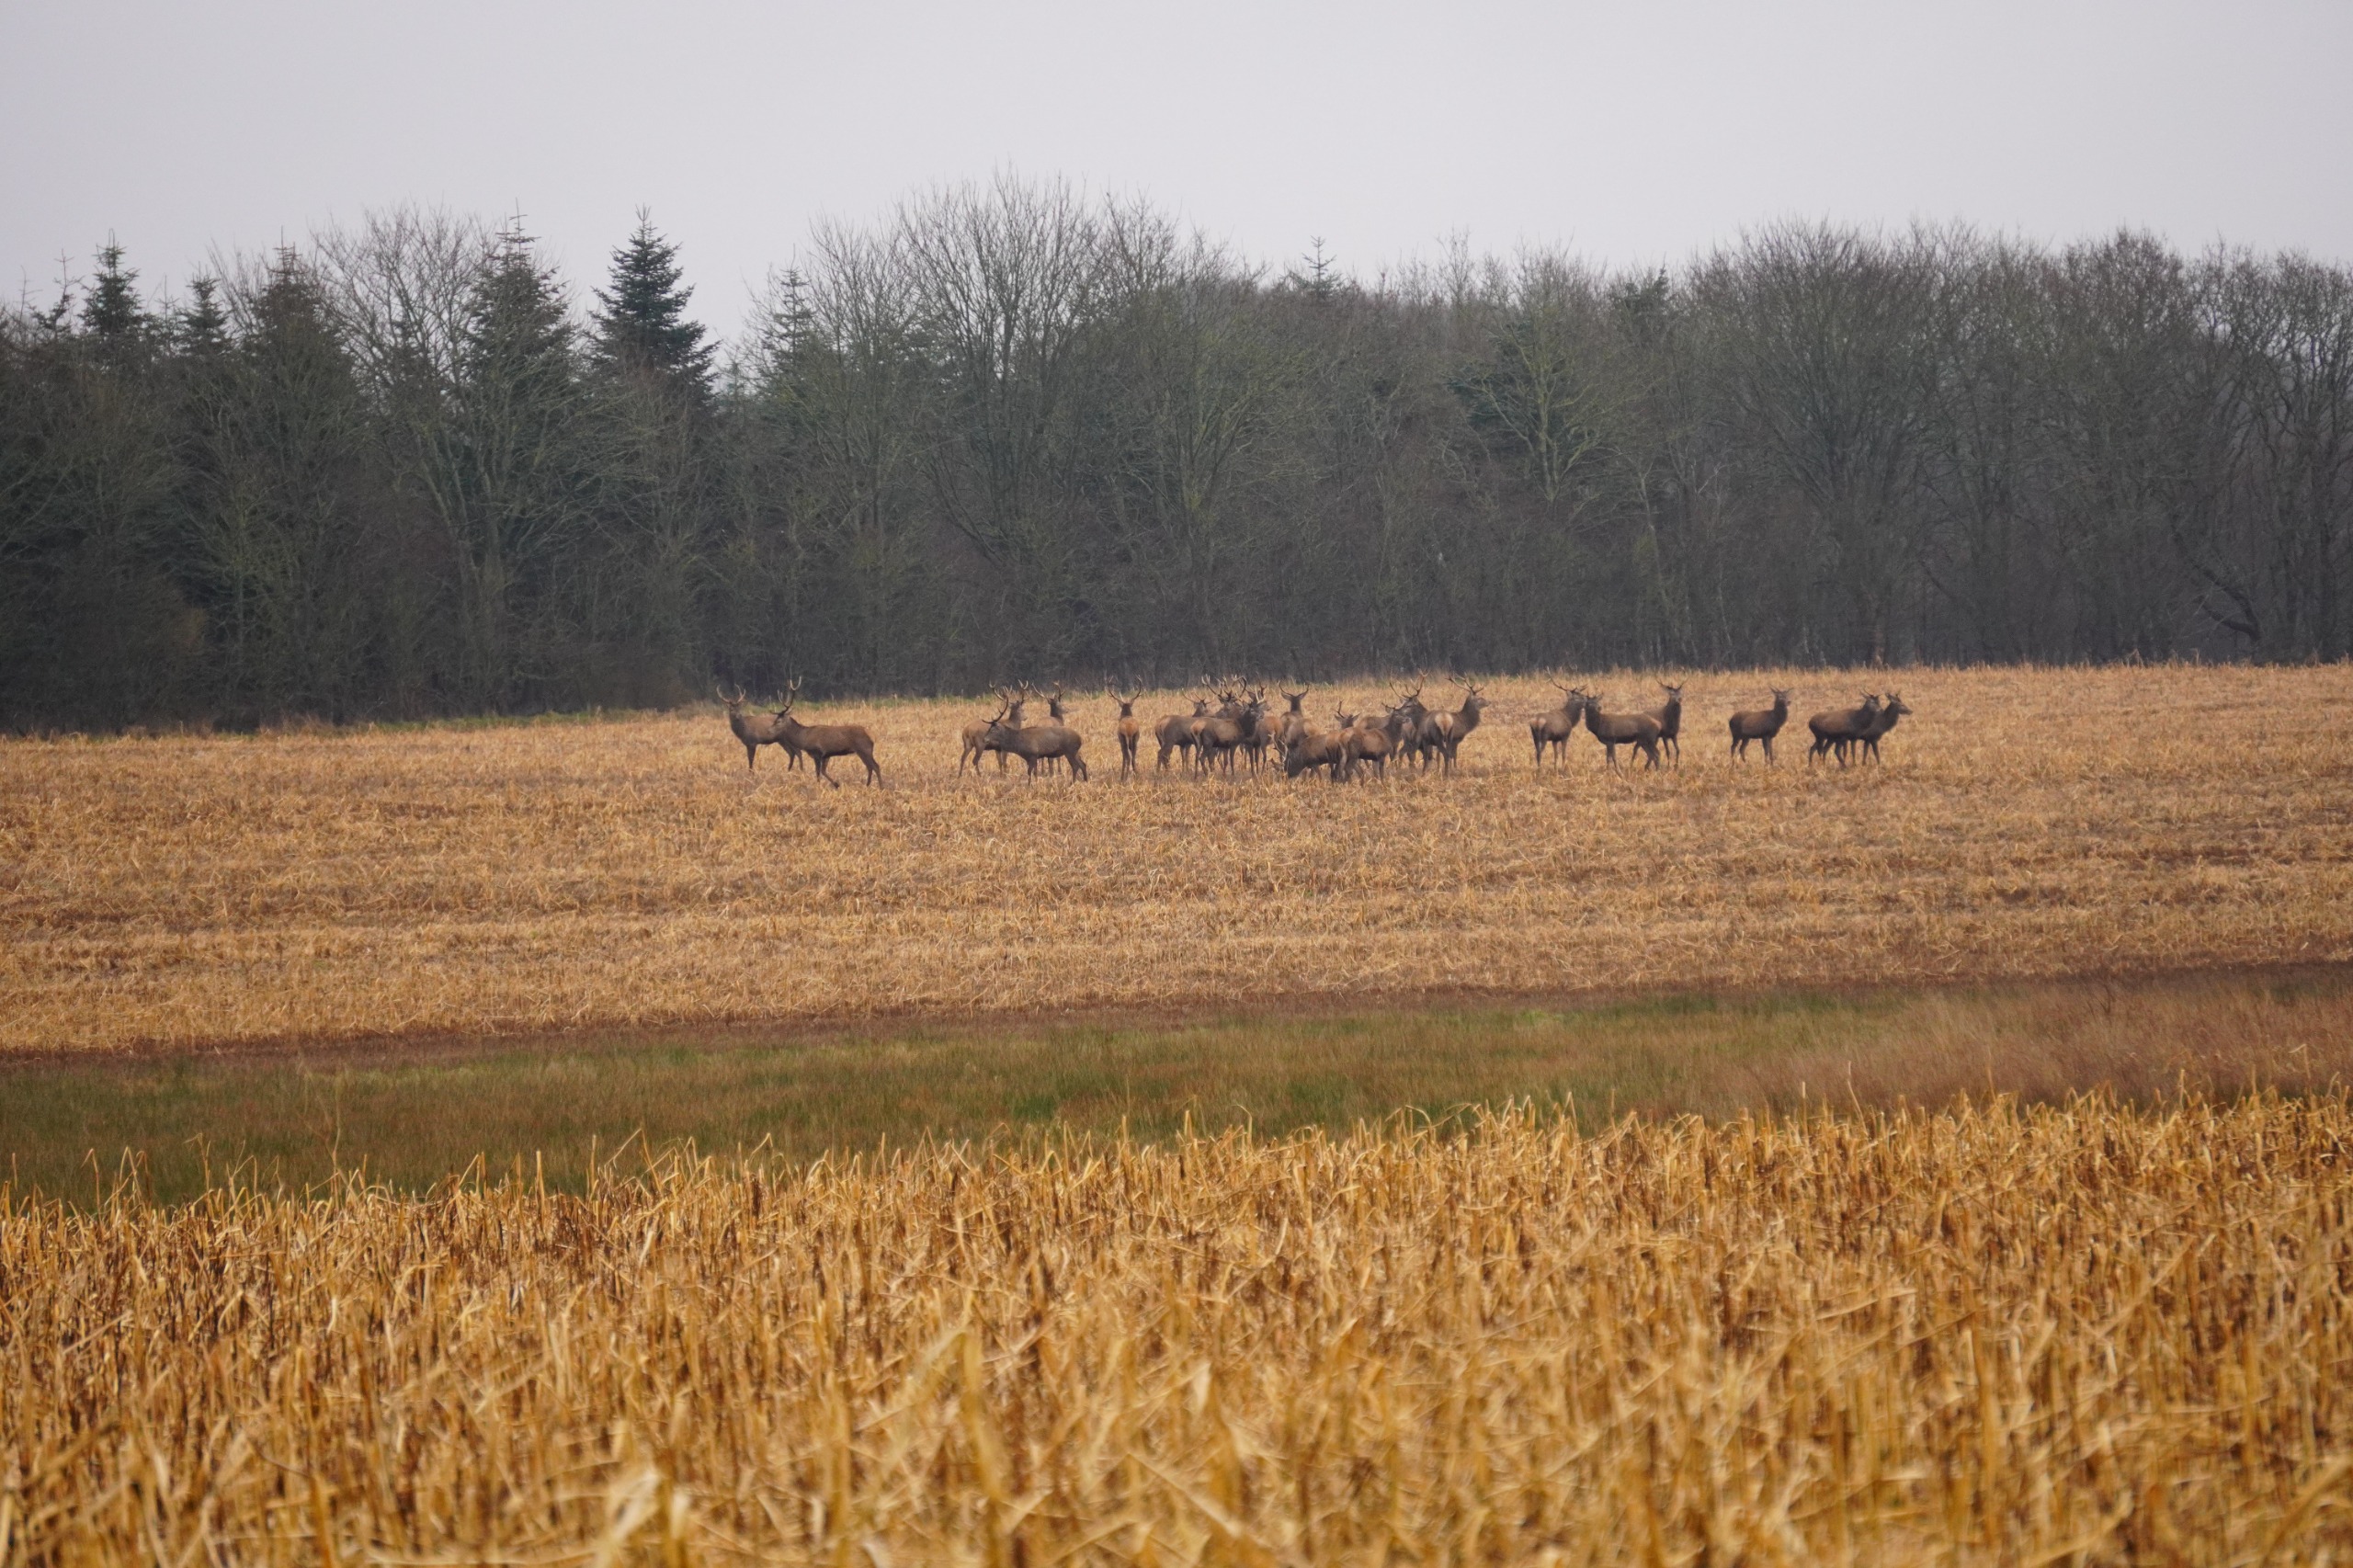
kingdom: Animalia
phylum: Chordata
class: Mammalia
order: Artiodactyla
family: Cervidae
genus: Cervus
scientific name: Cervus elaphus
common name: Krondyr
